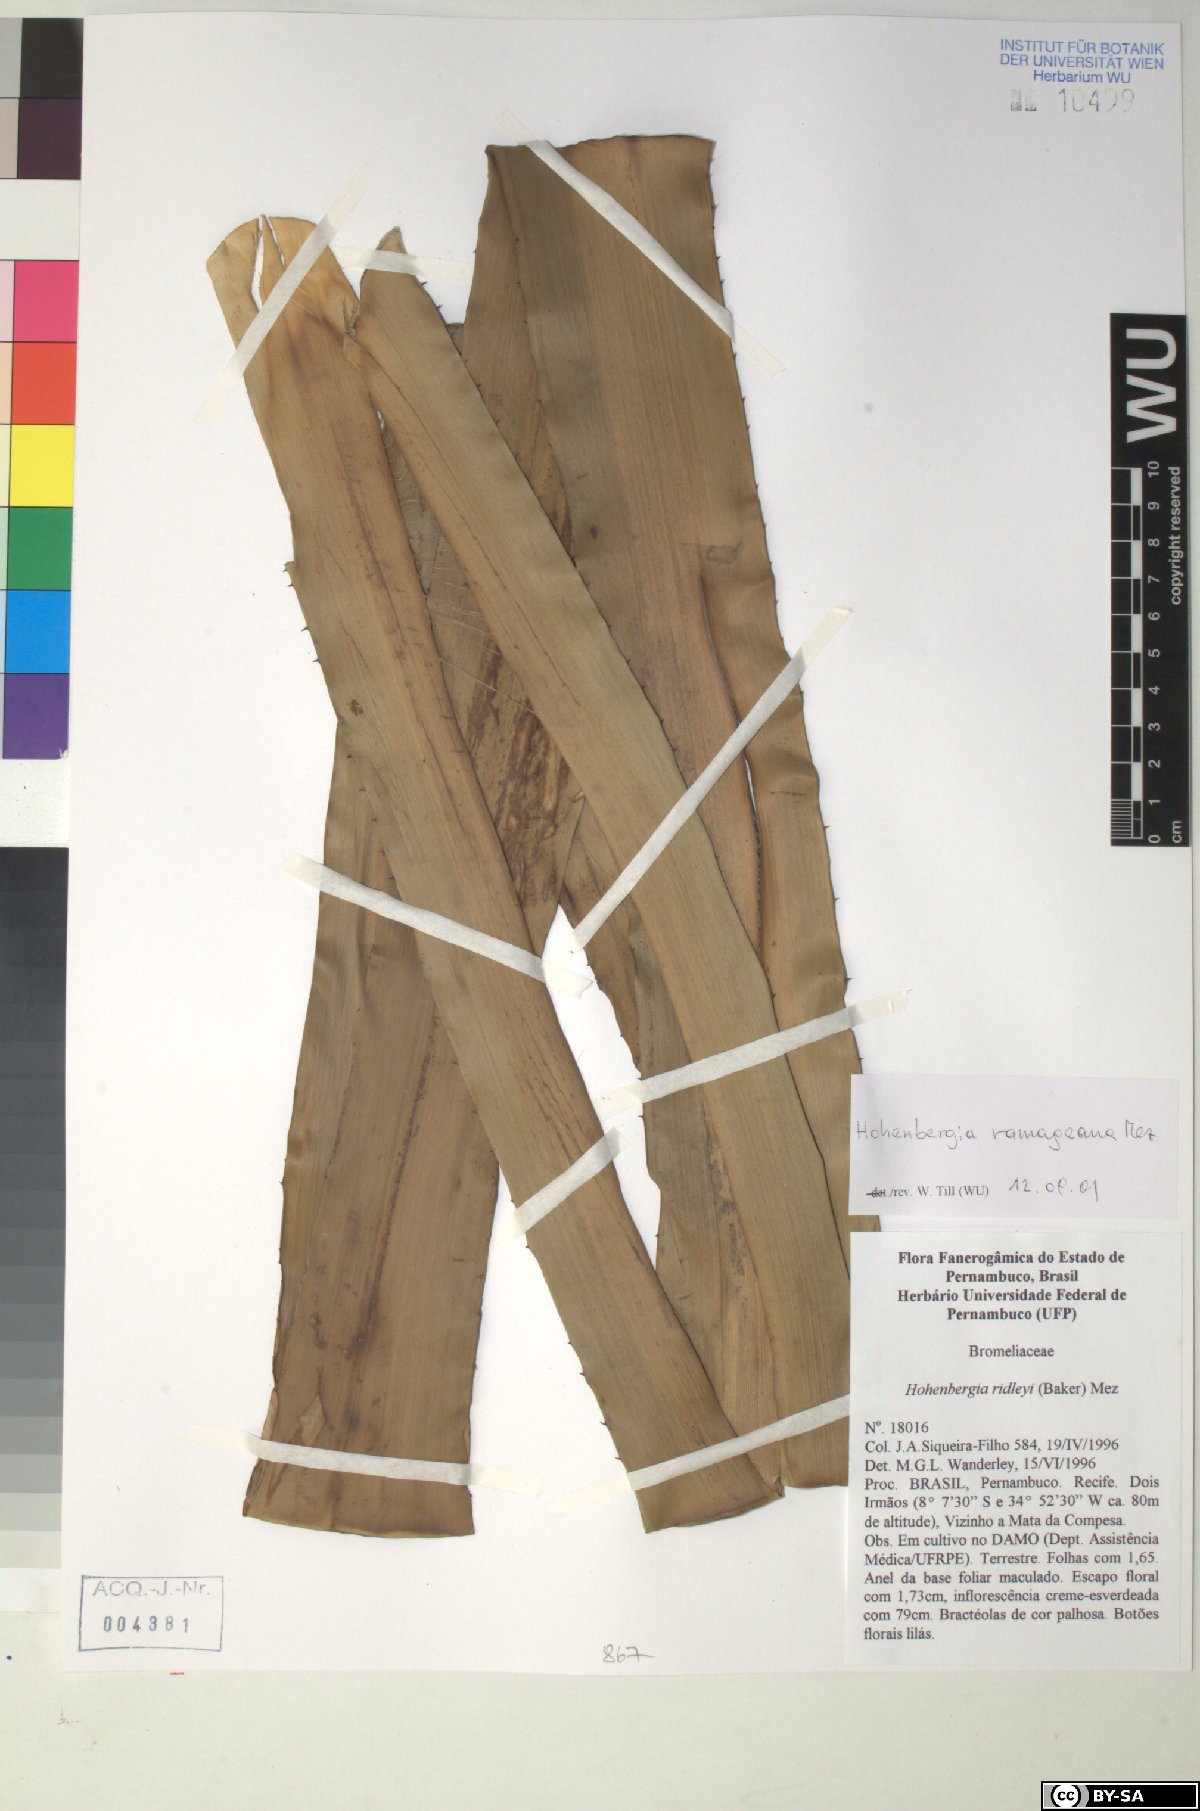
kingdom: Plantae
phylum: Tracheophyta
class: Liliopsida
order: Poales
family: Bromeliaceae
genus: Hohenbergia
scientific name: Hohenbergia ridleyi
